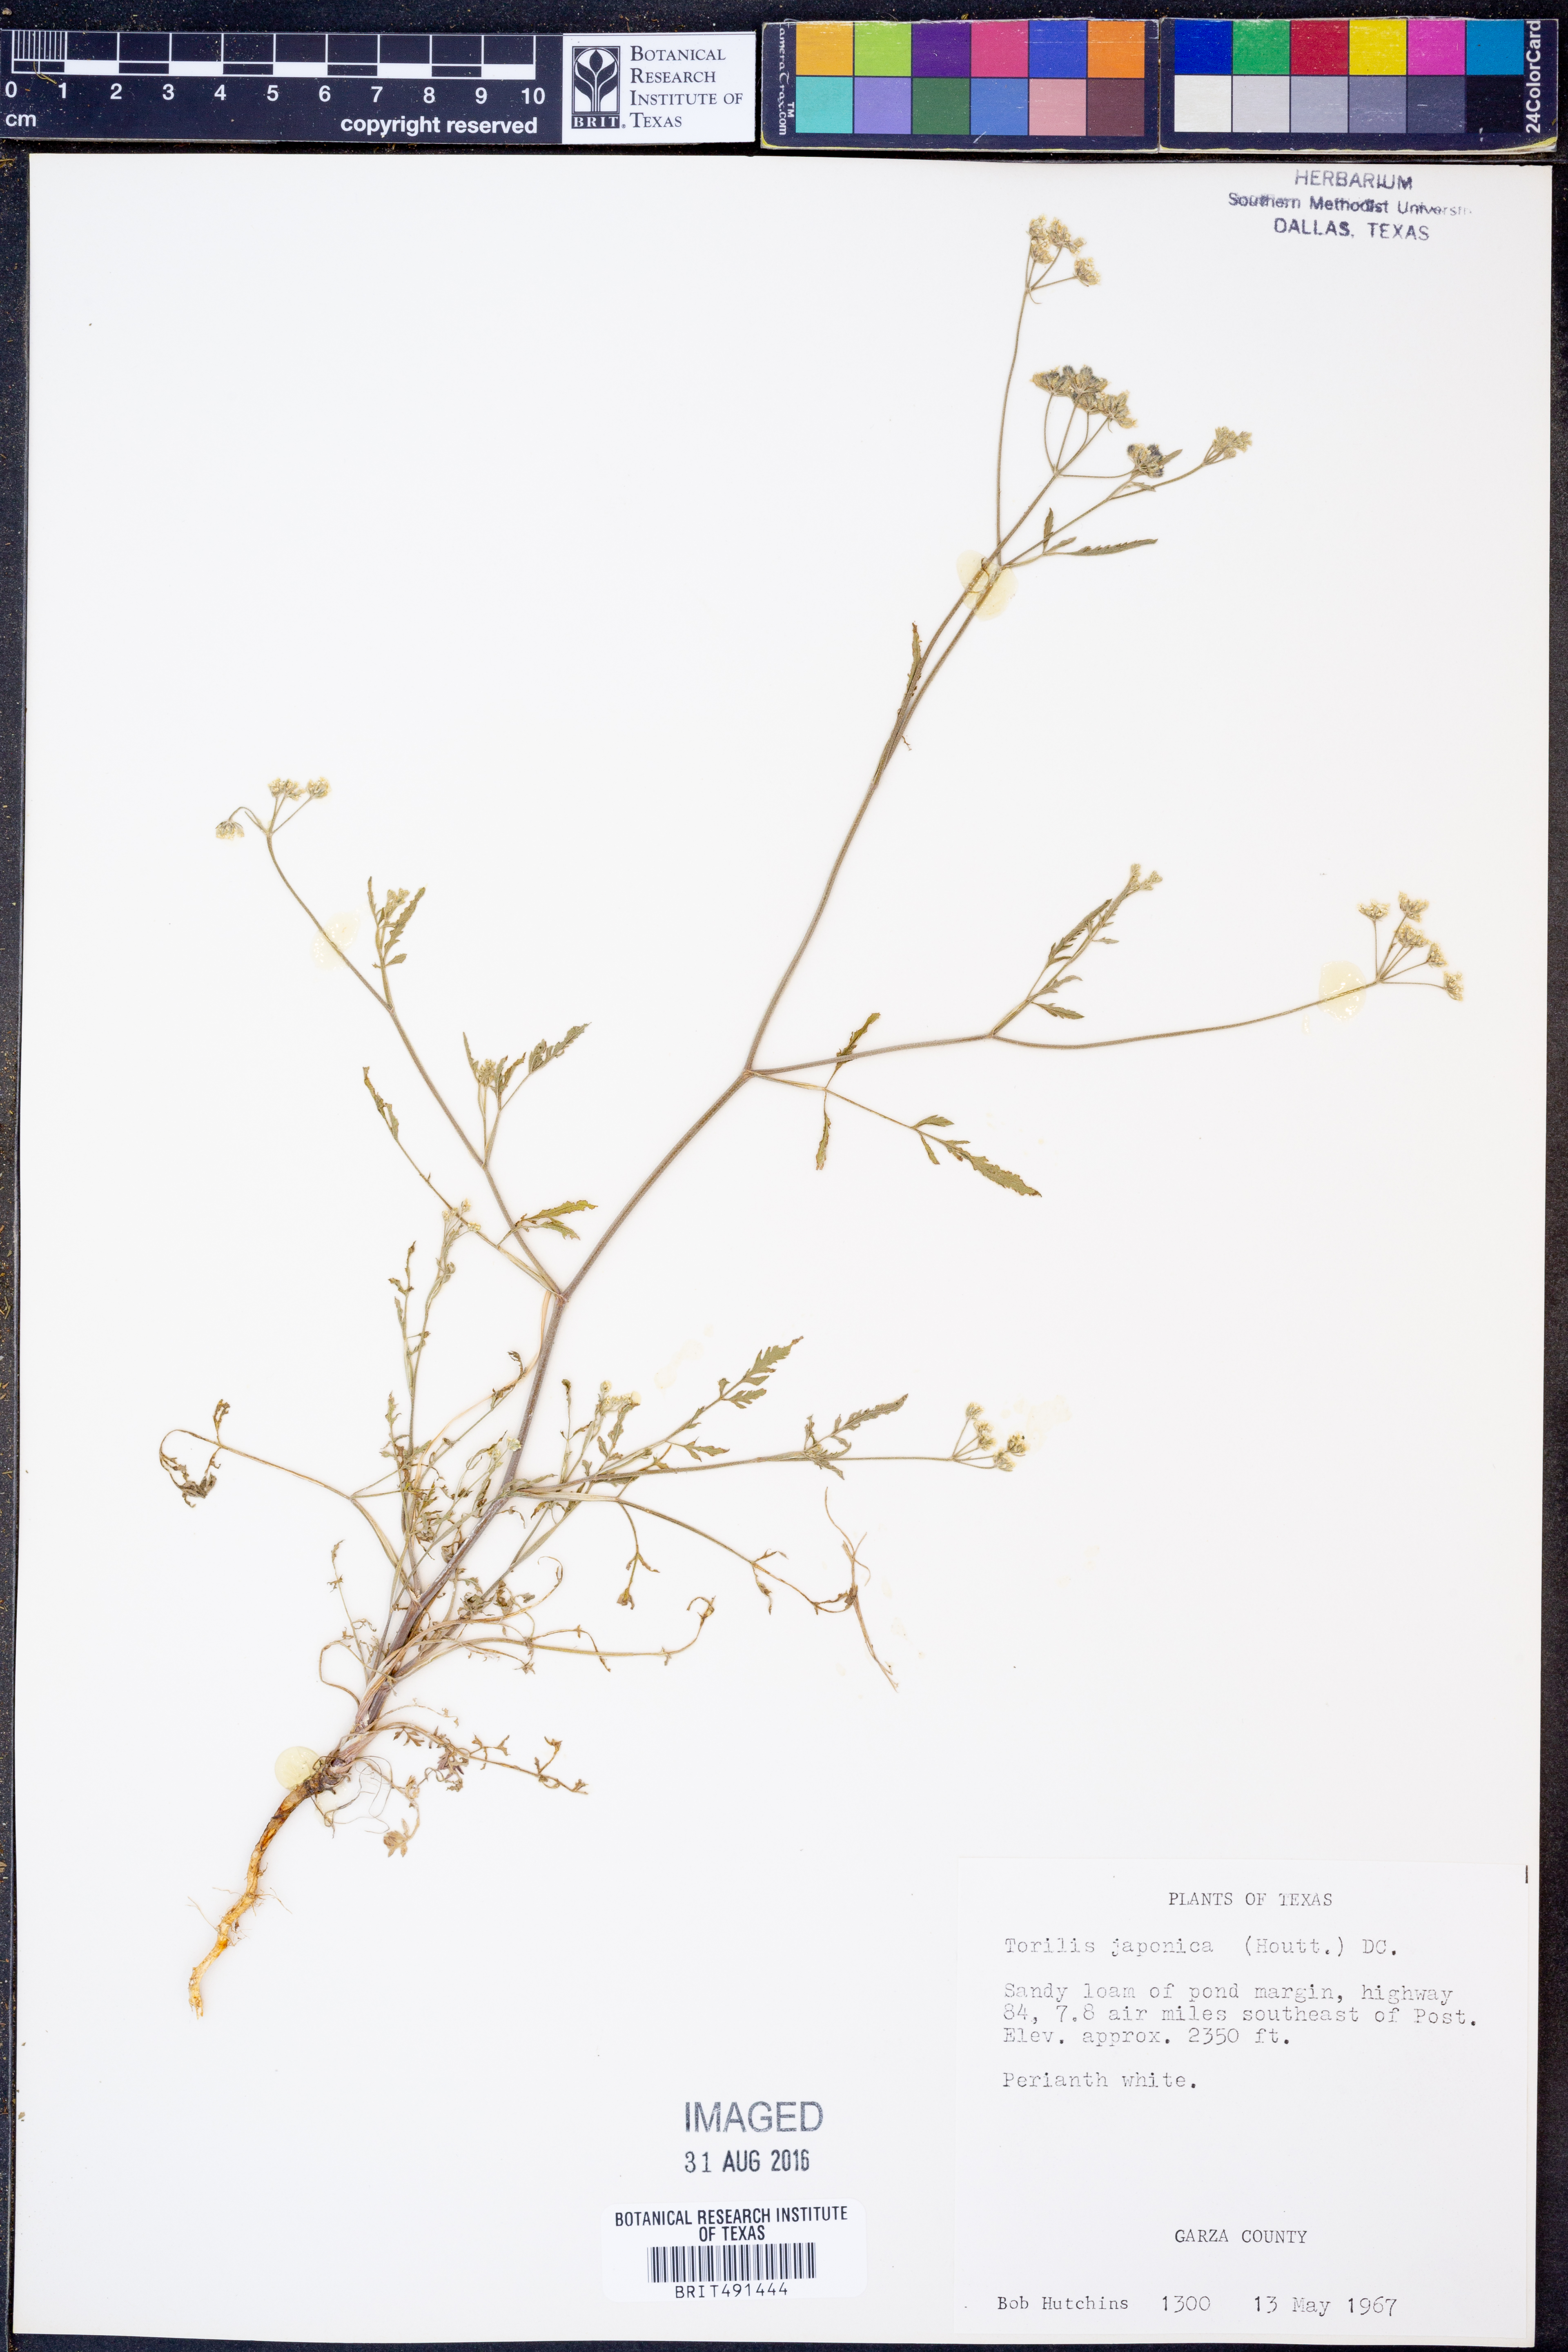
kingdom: Plantae
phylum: Tracheophyta
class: Magnoliopsida
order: Apiales
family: Apiaceae
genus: Torilis
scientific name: Torilis japonica
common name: Upright hedge-parsley
